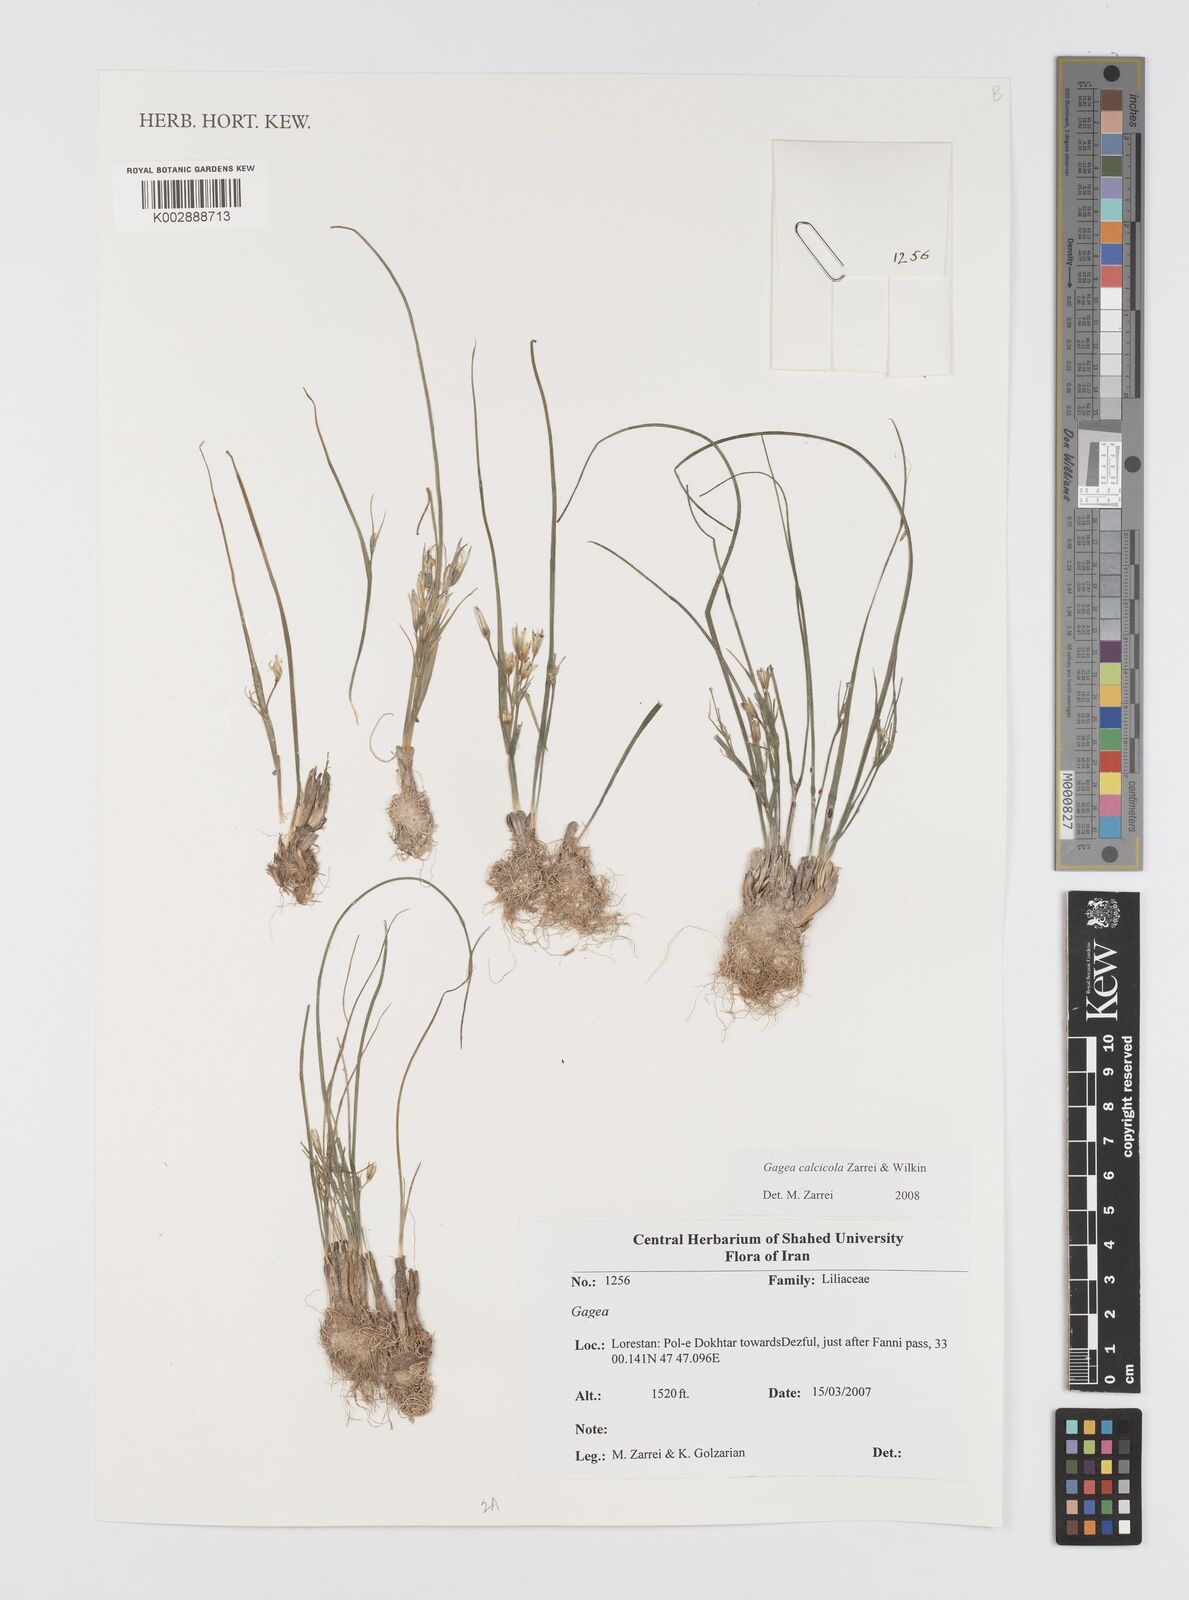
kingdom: Plantae
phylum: Tracheophyta
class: Liliopsida
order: Liliales
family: Liliaceae
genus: Gagea
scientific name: Gagea calcicola
